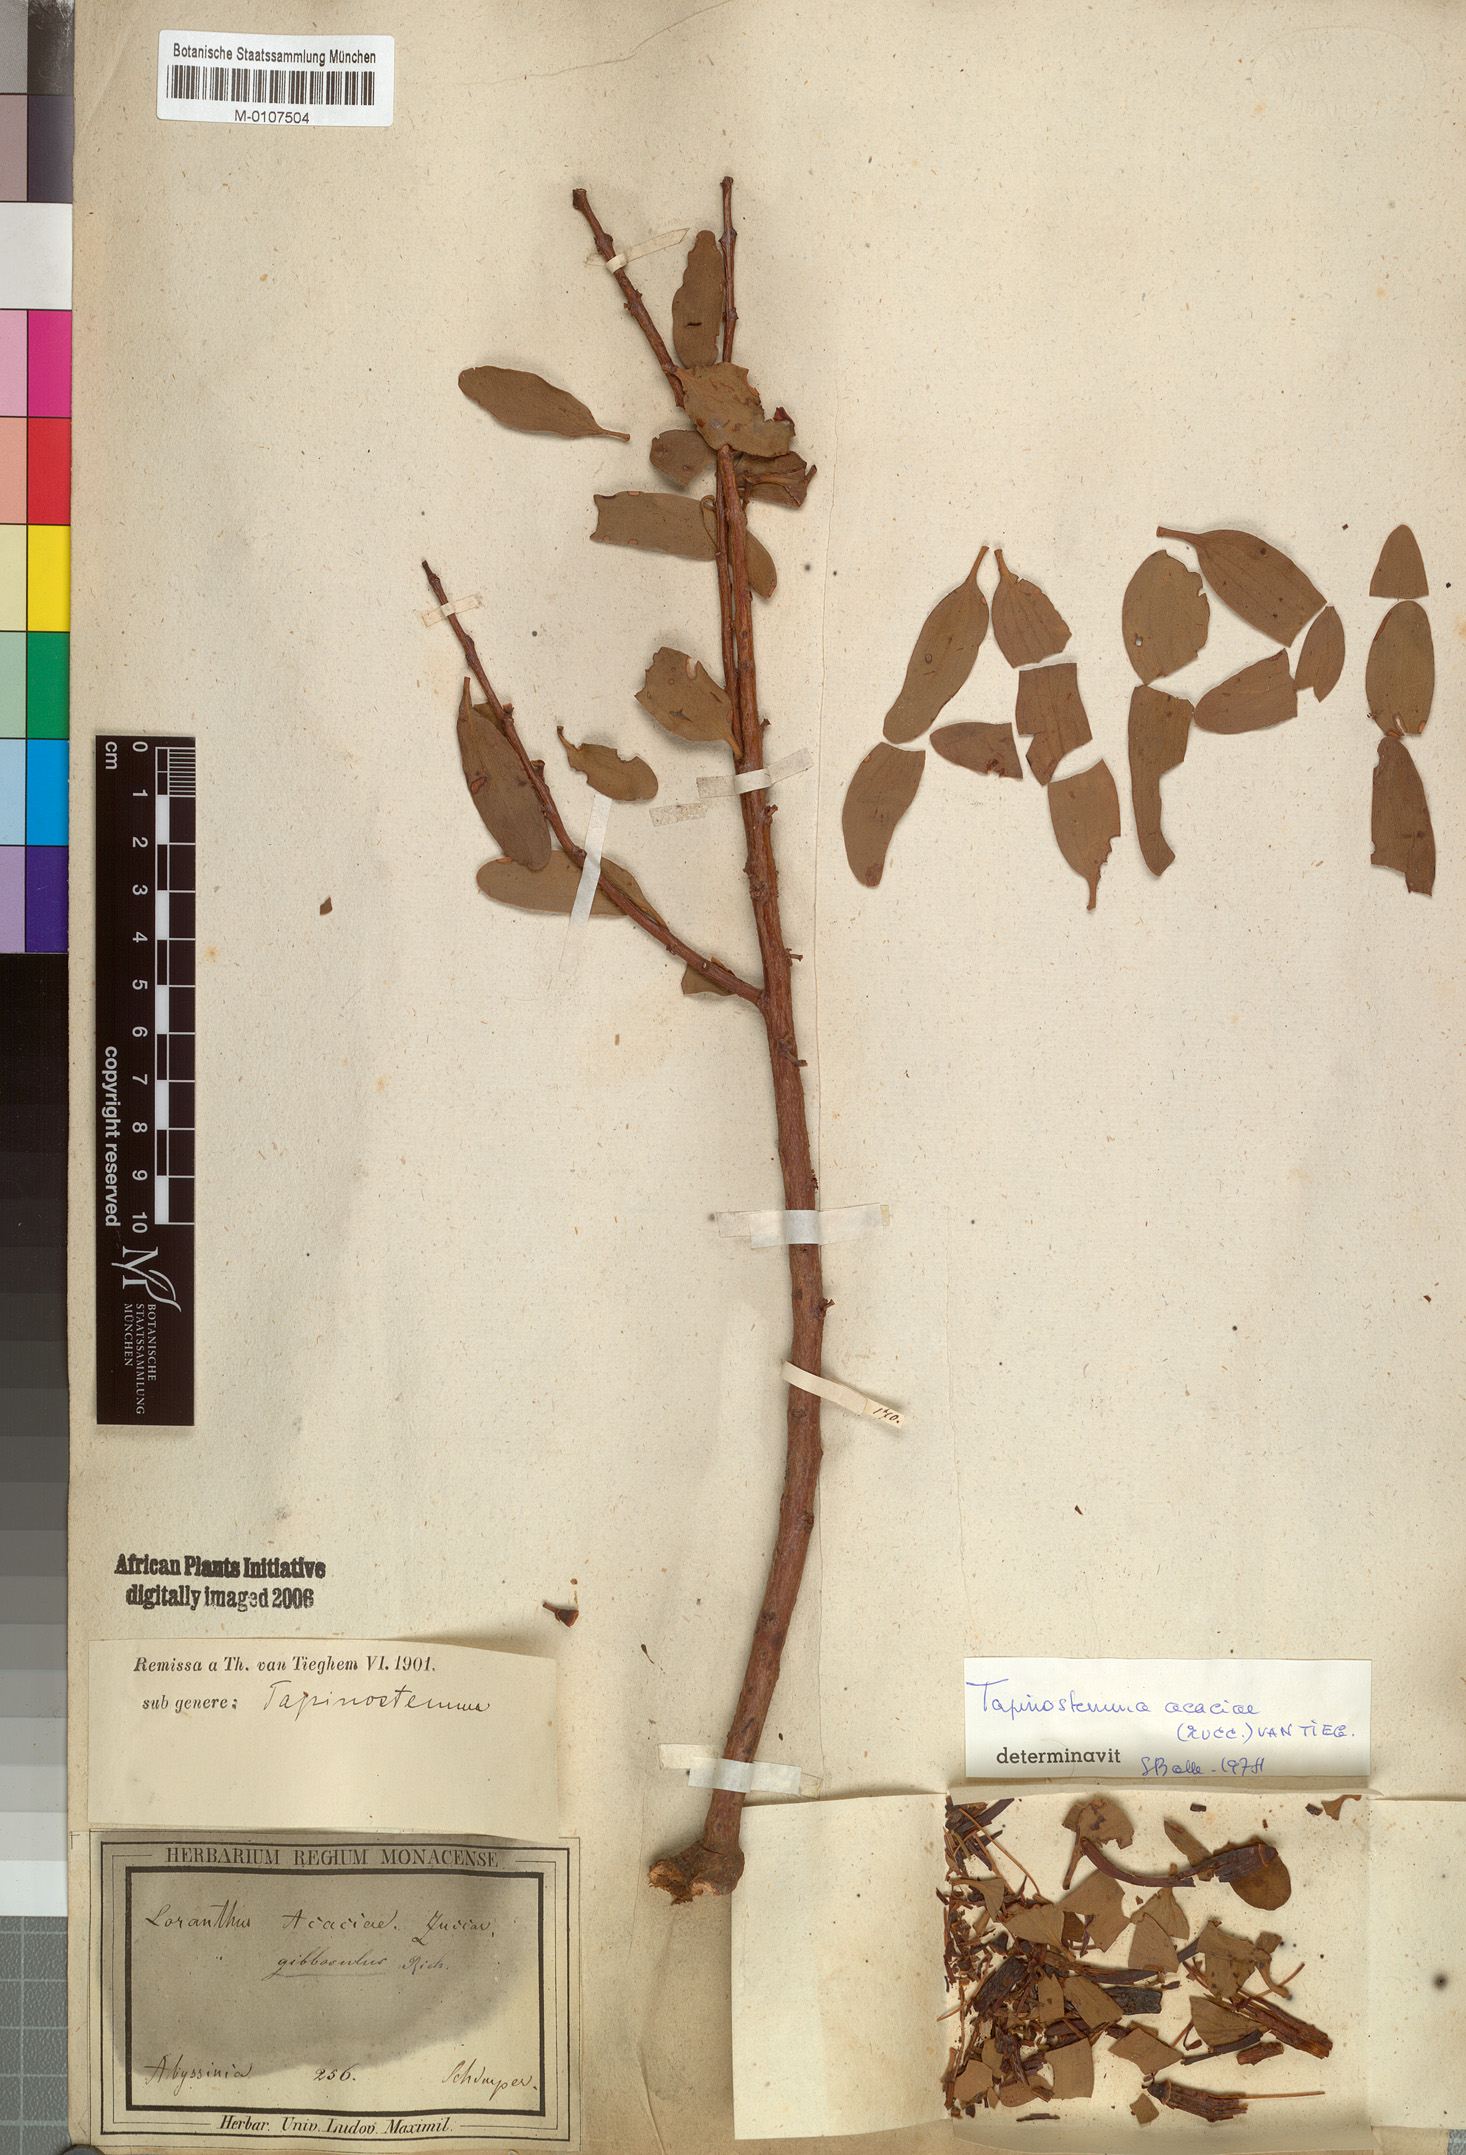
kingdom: Plantae
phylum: Tracheophyta
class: Magnoliopsida
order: Santalales
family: Loranthaceae
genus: Plicosepalus
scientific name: Plicosepalus acaciae
